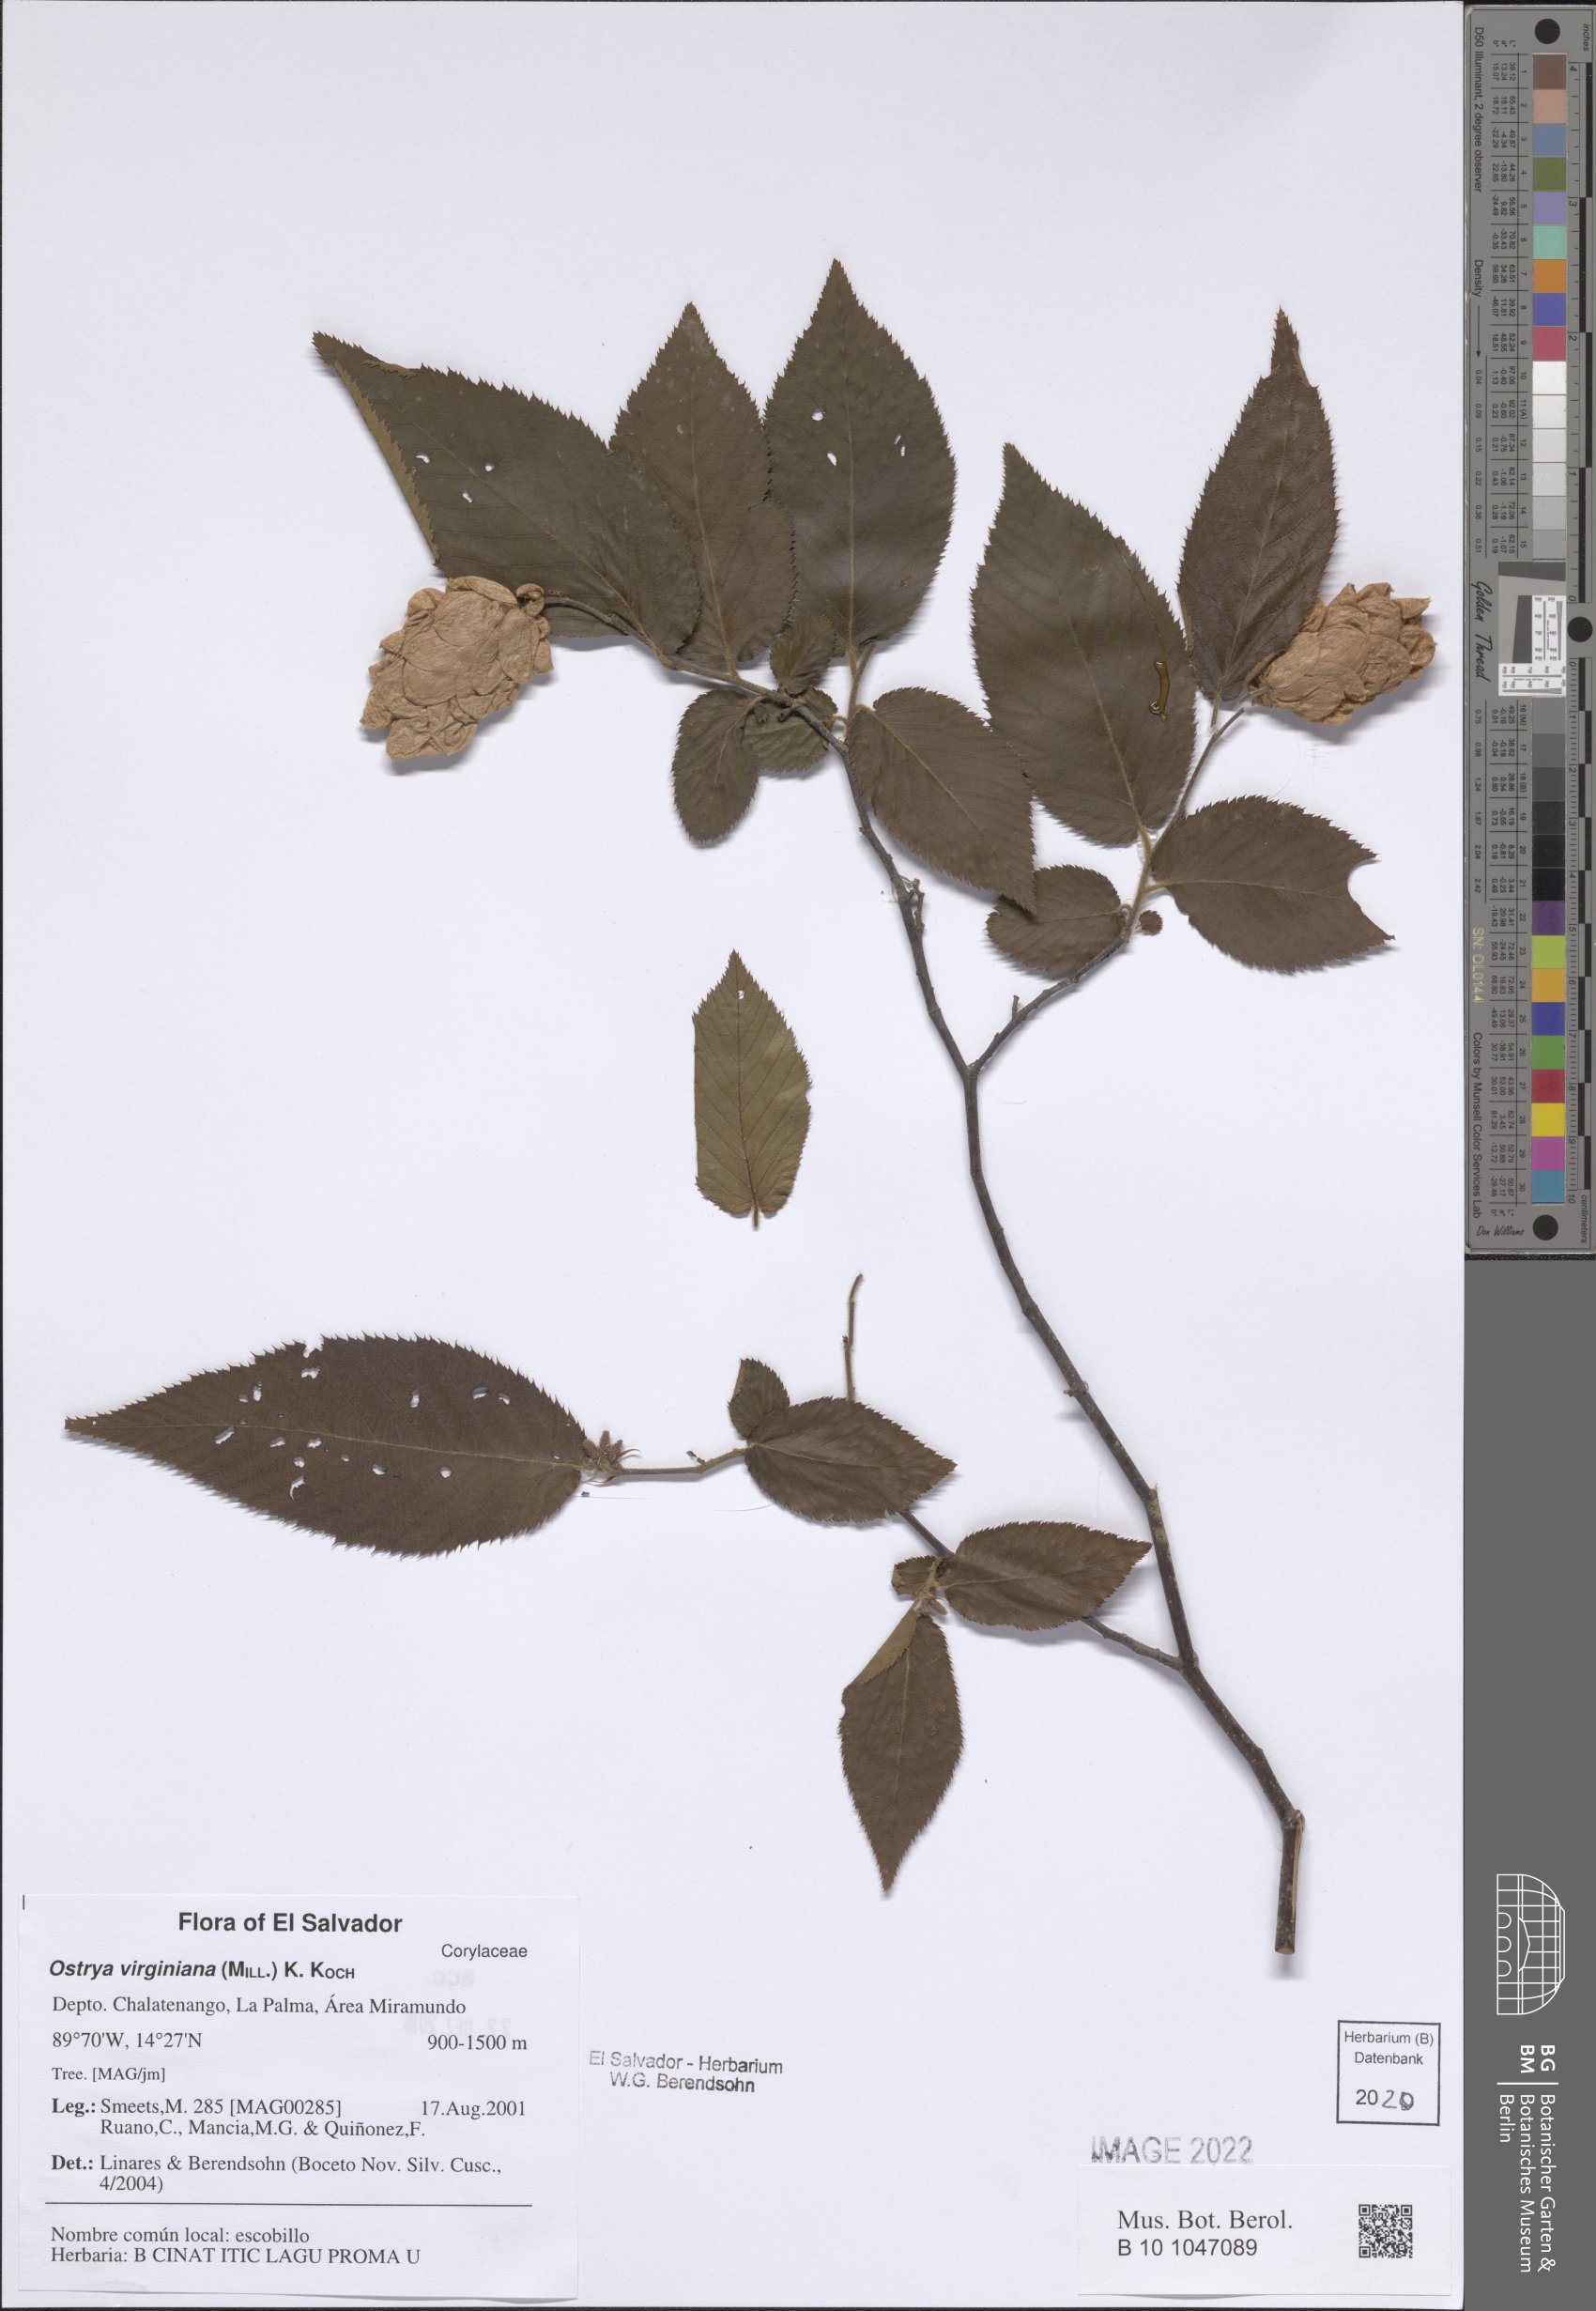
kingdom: Plantae
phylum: Tracheophyta
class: Magnoliopsida
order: Fagales
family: Betulaceae
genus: Ostrya
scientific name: Ostrya virginiana
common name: Ironwood
